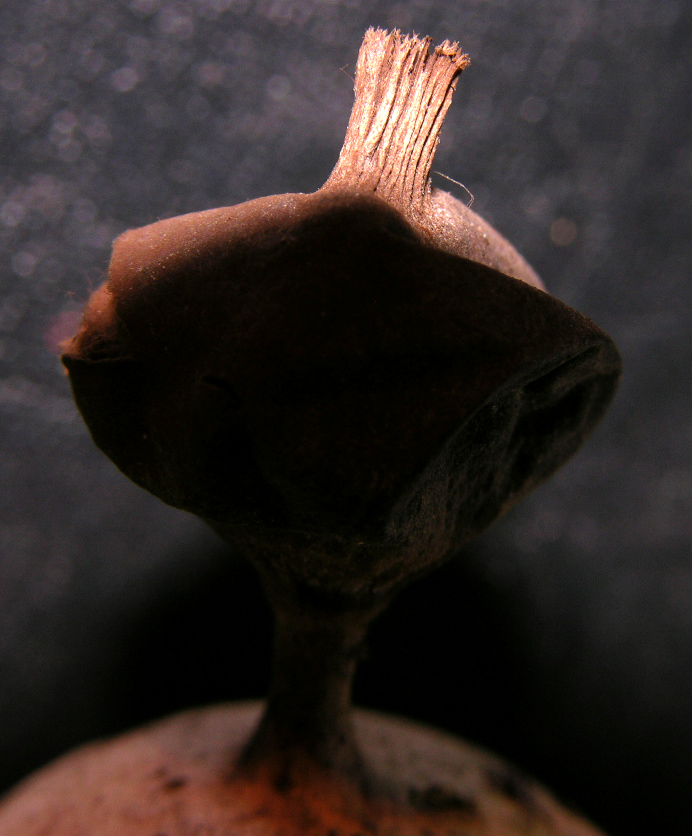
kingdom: Fungi
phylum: Basidiomycota
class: Agaricomycetes
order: Geastrales
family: Geastraceae
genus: Geastrum
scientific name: Geastrum pectinatum
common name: stilket stjernebold
